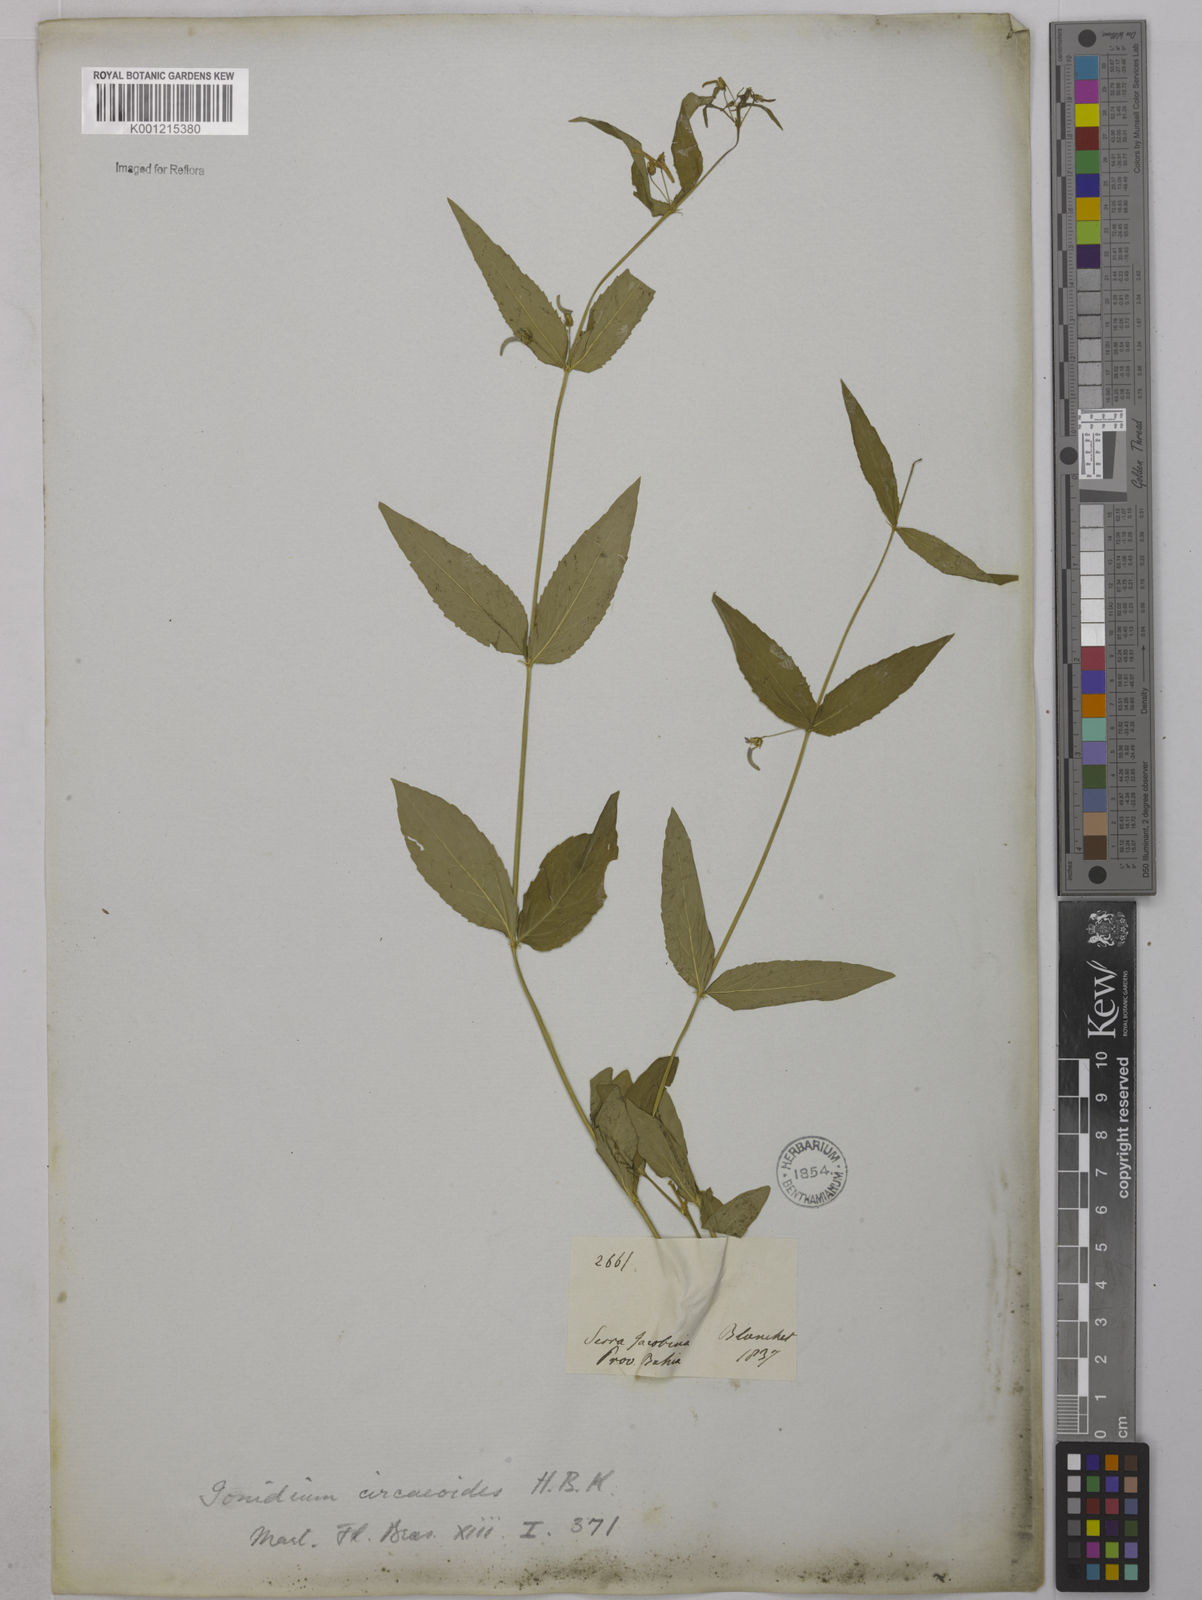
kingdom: Plantae
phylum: Tracheophyta
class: Magnoliopsida
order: Malpighiales
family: Violaceae
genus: Hybanthus
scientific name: Hybanthus
